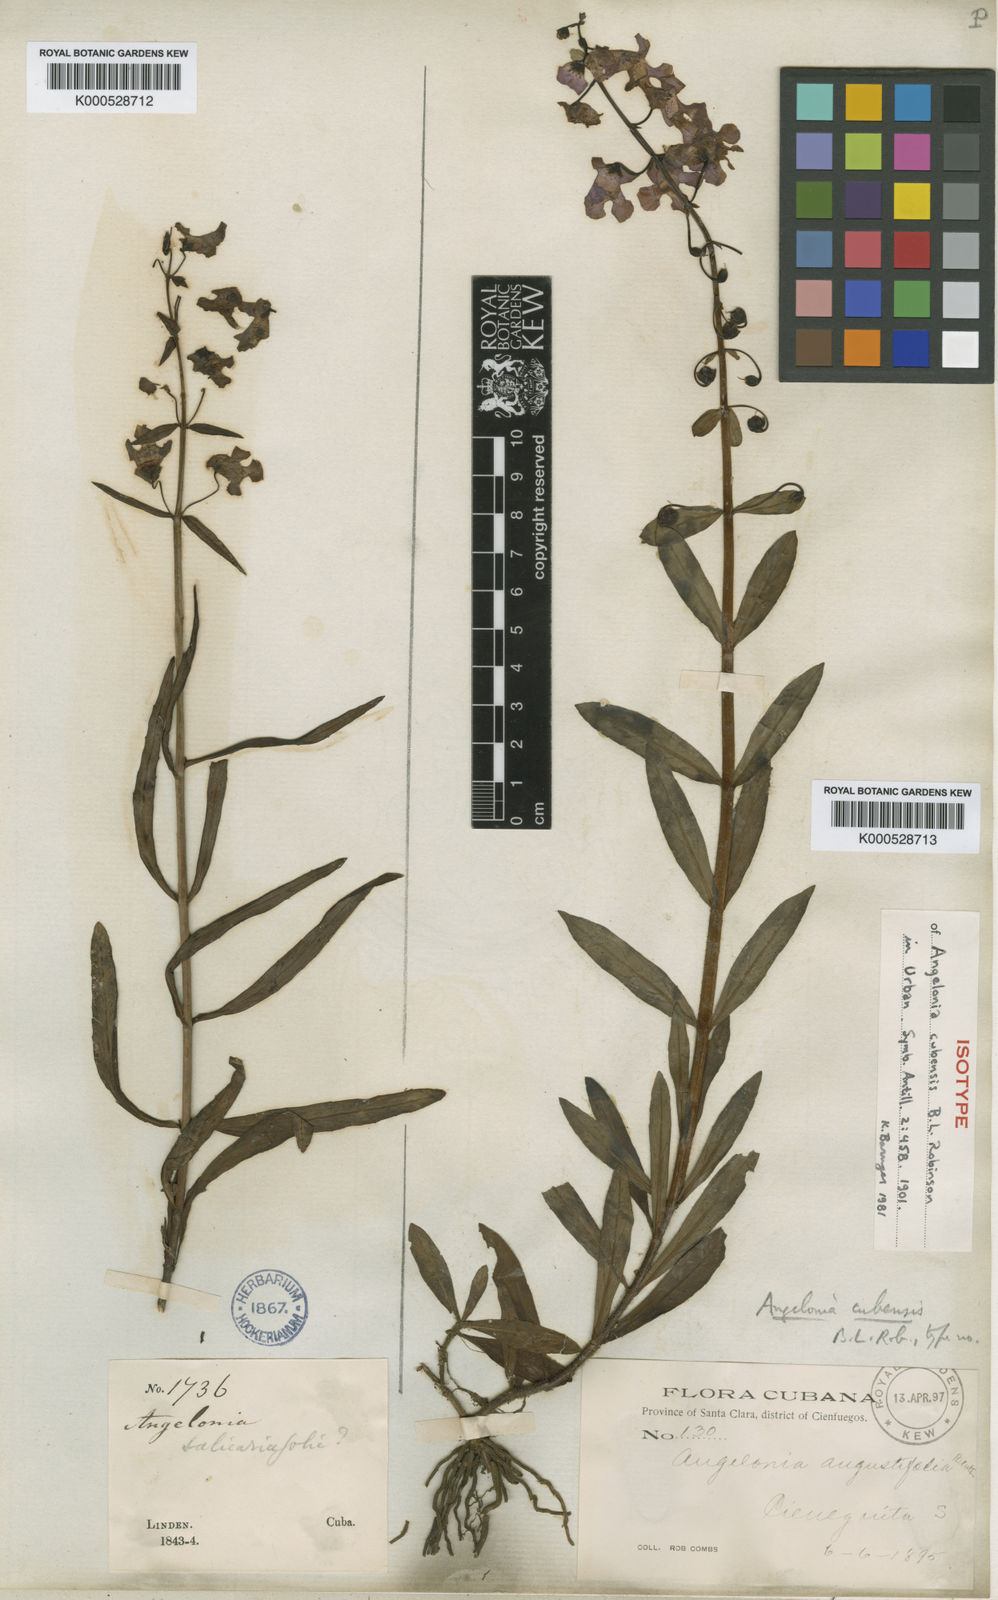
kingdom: Plantae
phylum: Tracheophyta
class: Magnoliopsida
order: Lamiales
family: Plantaginaceae
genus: Angelonia
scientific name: Angelonia pilosella
